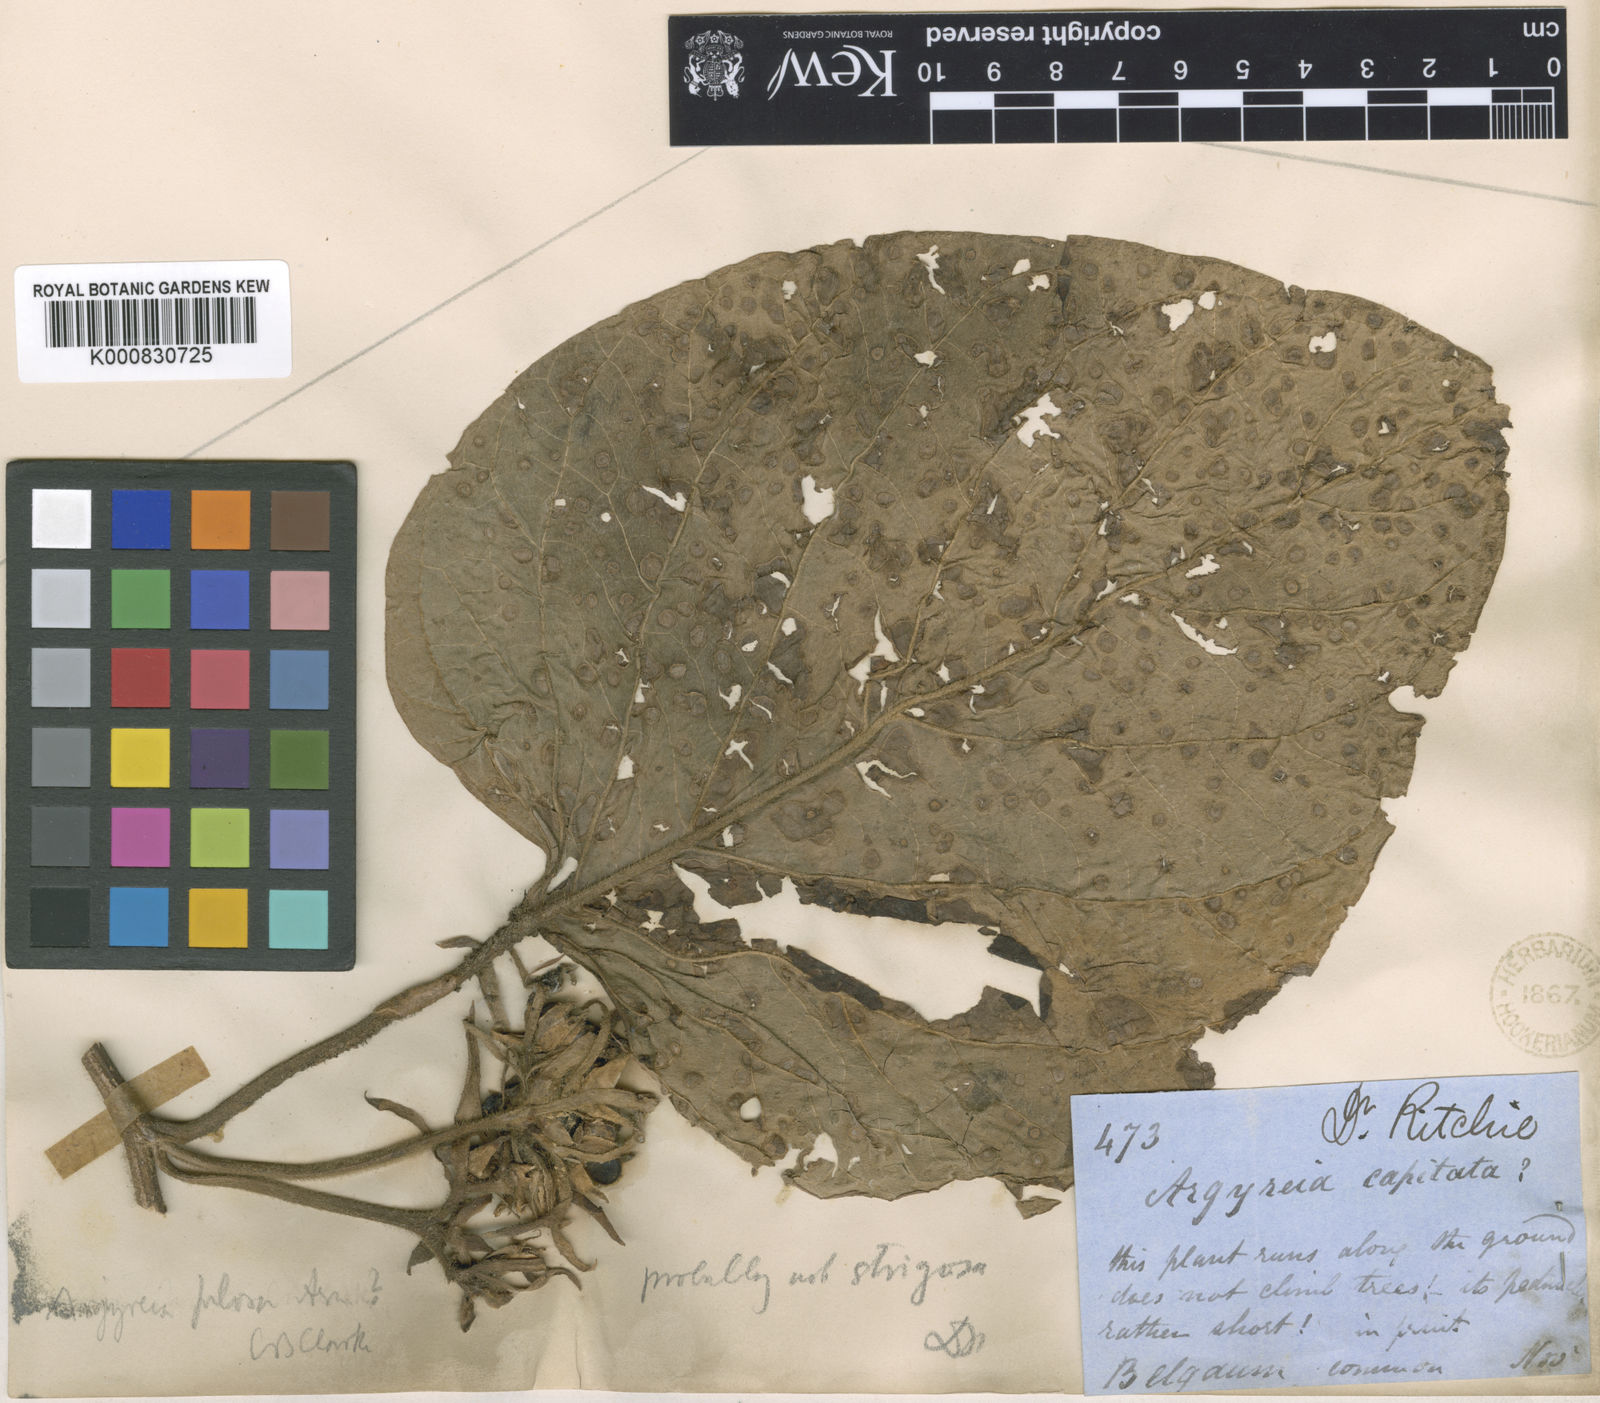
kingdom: Plantae
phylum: Tracheophyta
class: Magnoliopsida
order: Solanales
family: Convolvulaceae
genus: Argyreia
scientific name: Argyreia srinivasanii
